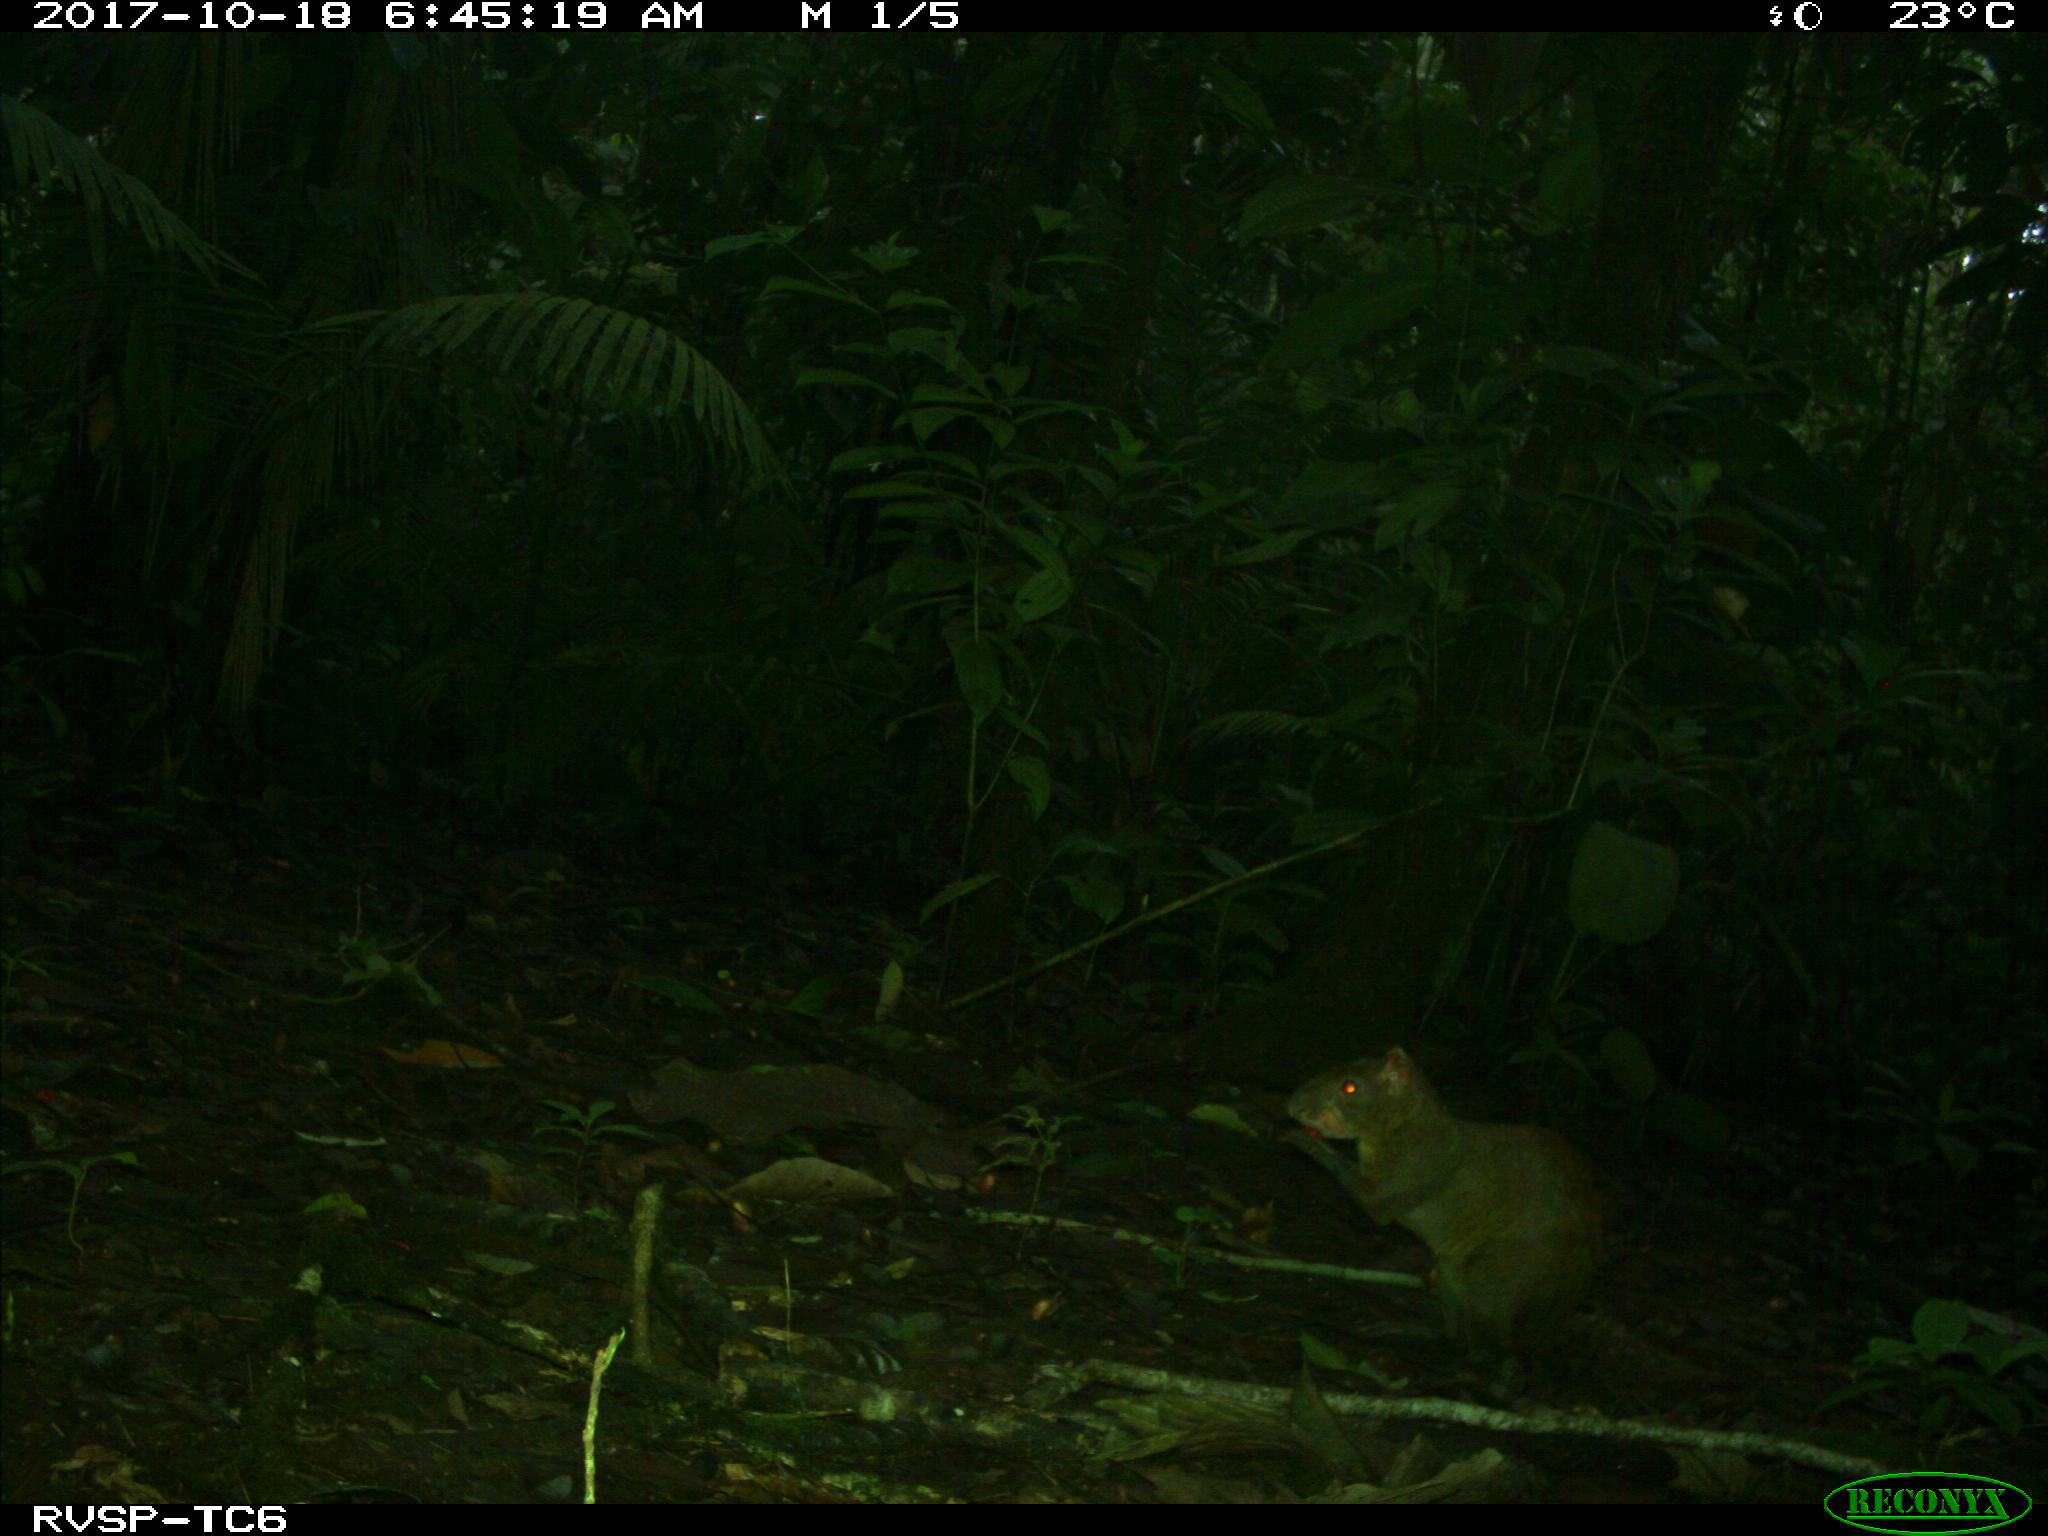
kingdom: Animalia
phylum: Chordata
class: Mammalia
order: Rodentia
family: Dasyproctidae
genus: Dasyprocta
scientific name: Dasyprocta punctata
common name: Central american agouti
